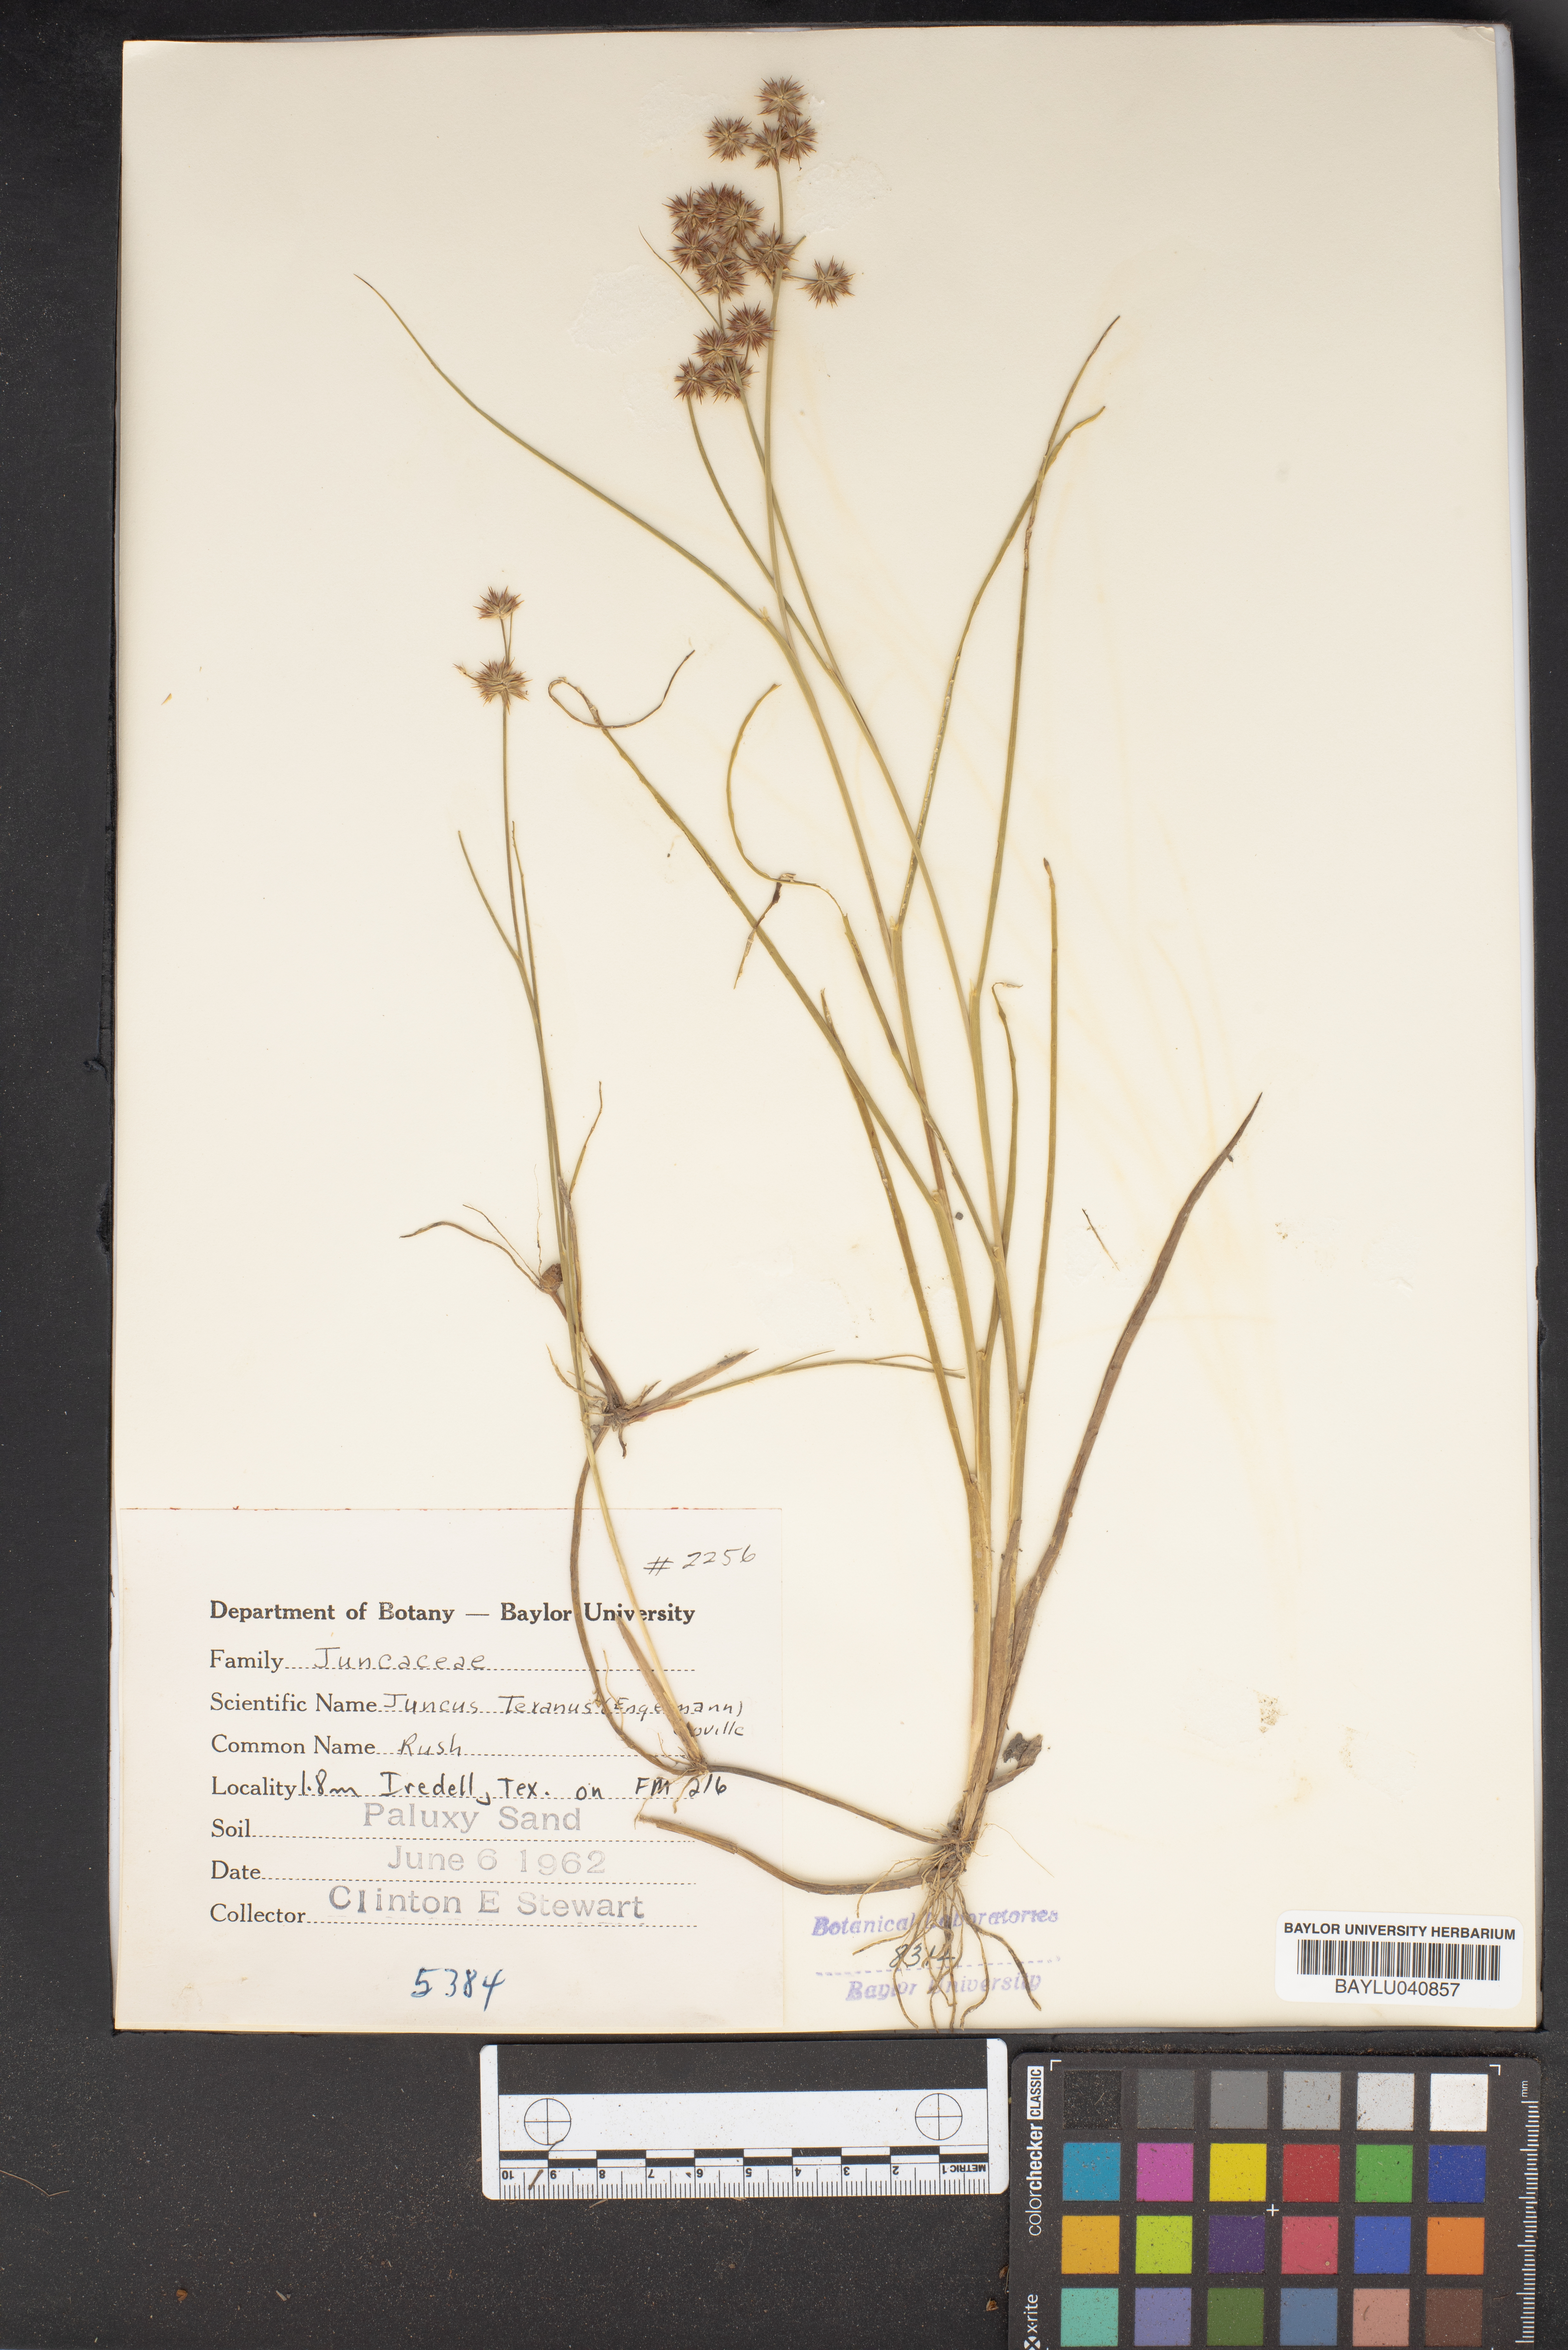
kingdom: Plantae
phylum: Tracheophyta
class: Liliopsida
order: Poales
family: Juncaceae
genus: Juncus
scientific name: Juncus texanus
